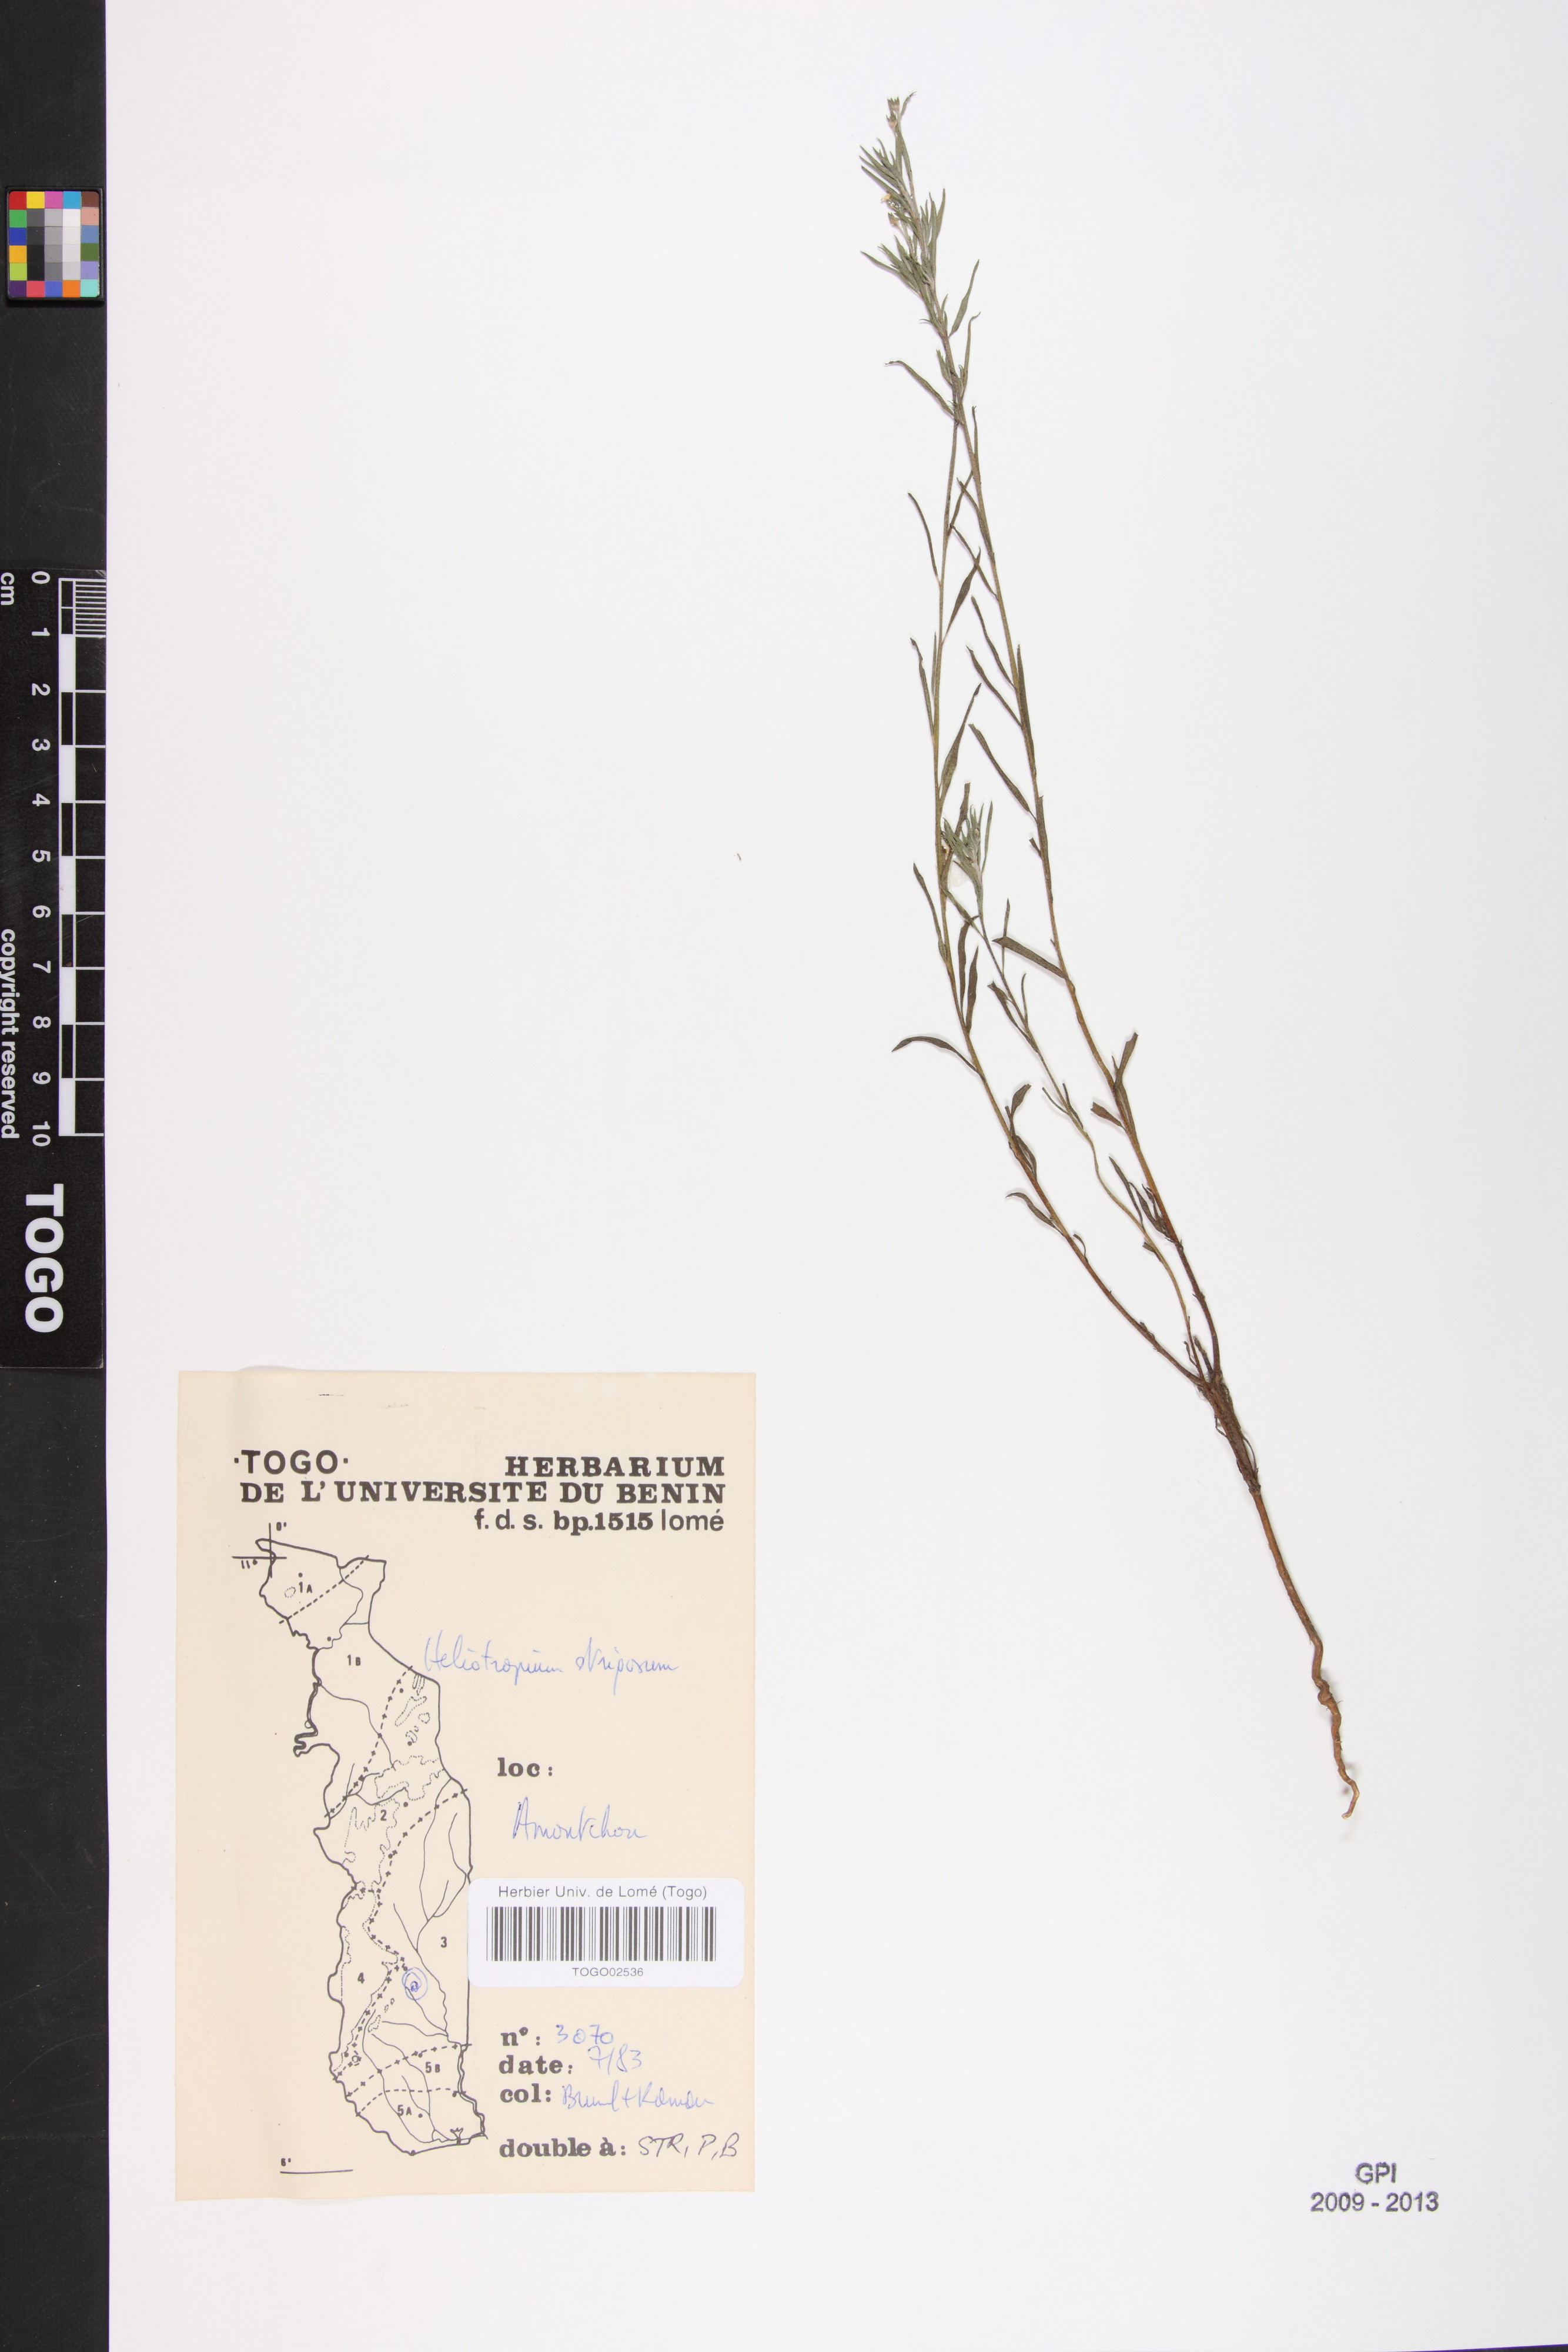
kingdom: Plantae
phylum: Tracheophyta
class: Magnoliopsida
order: Boraginales
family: Heliotropiaceae
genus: Euploca
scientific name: Euploca strigosa
